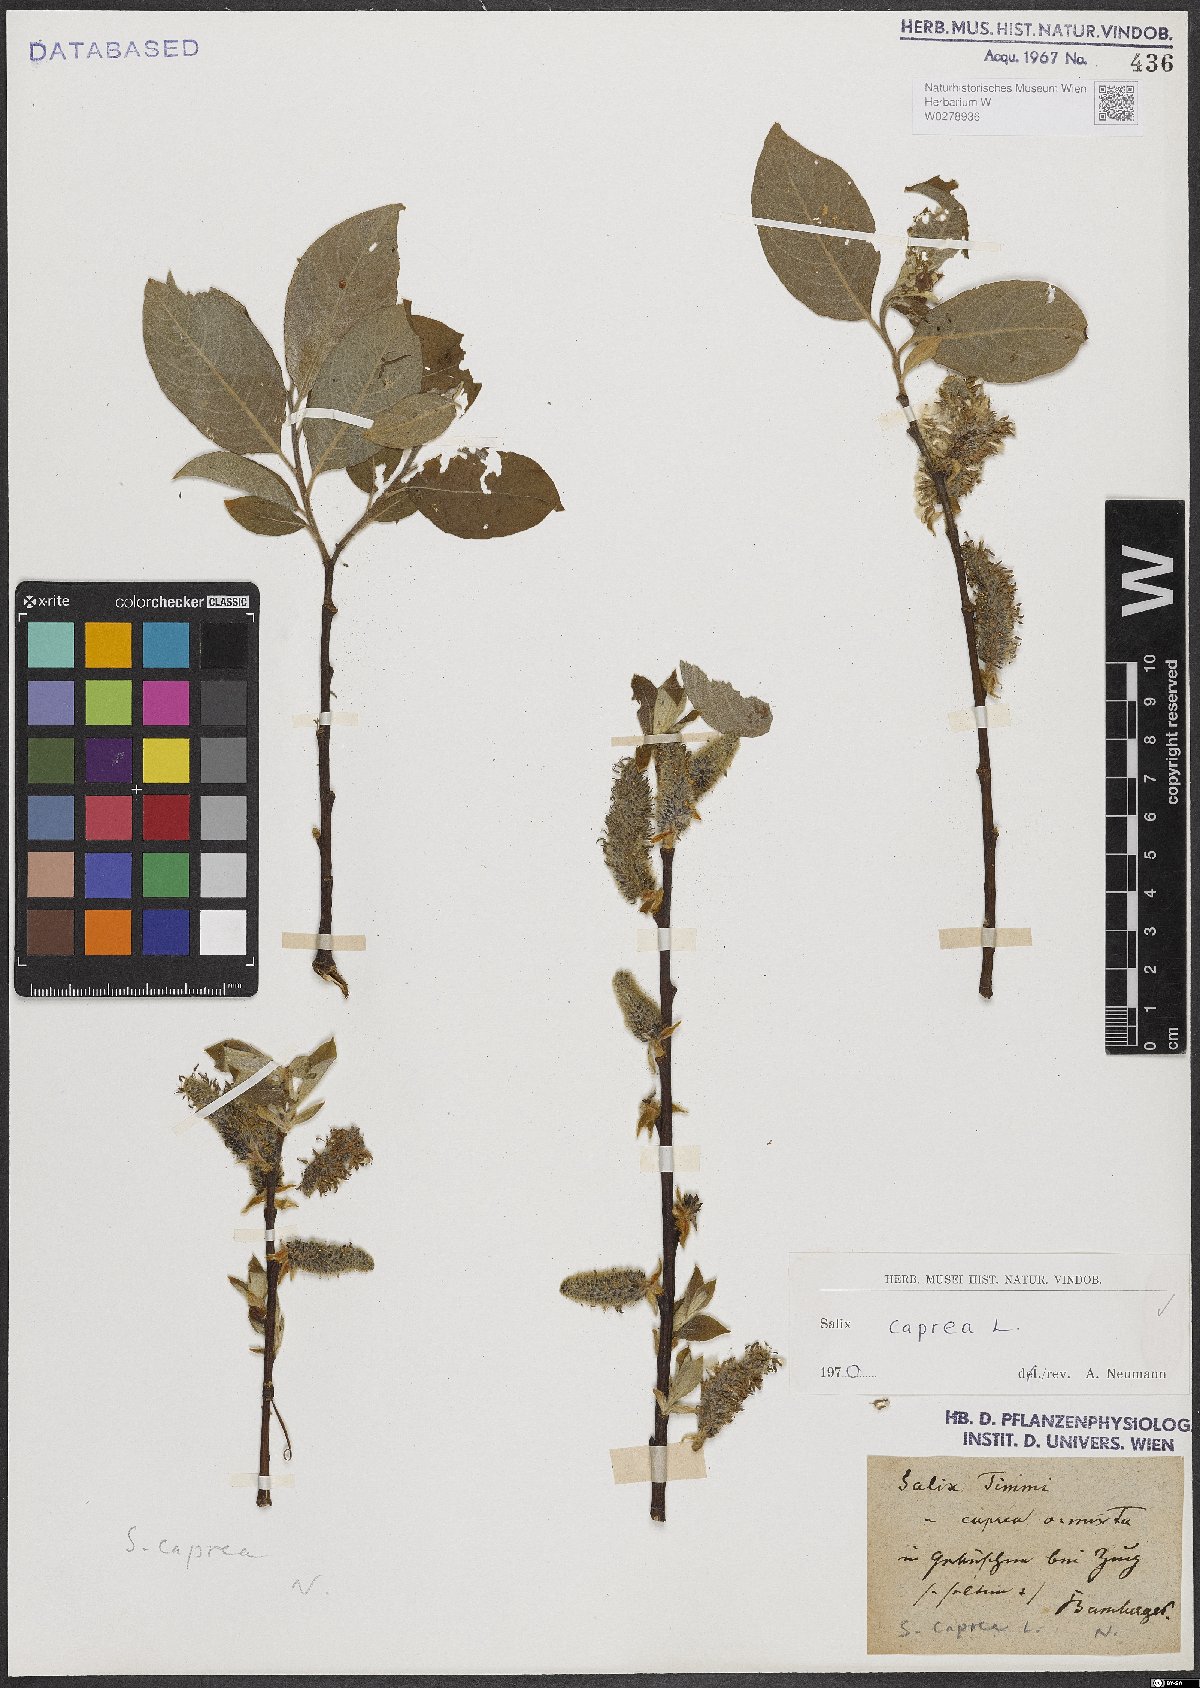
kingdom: Plantae
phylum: Tracheophyta
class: Magnoliopsida
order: Malpighiales
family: Salicaceae
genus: Salix
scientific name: Salix caprea
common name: Goat willow
